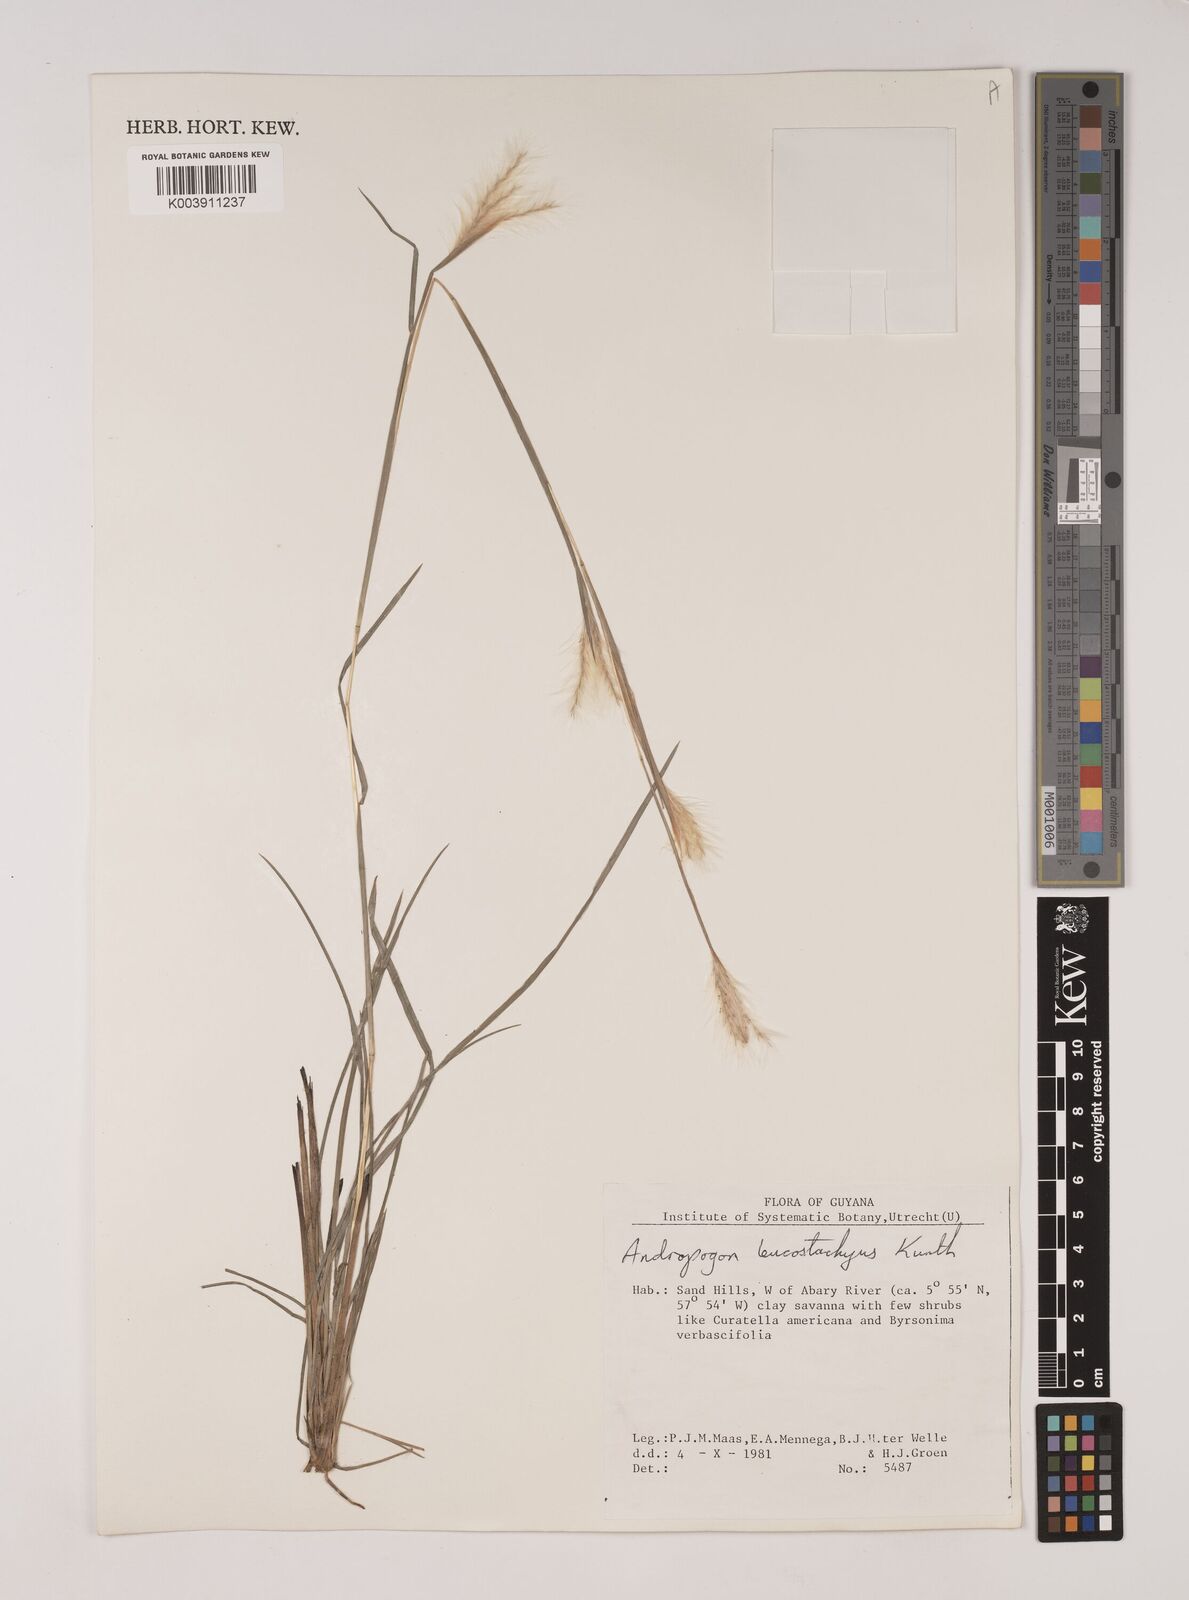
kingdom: Plantae
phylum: Tracheophyta
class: Liliopsida
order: Poales
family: Poaceae
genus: Andropogon
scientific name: Andropogon leucostachyus
